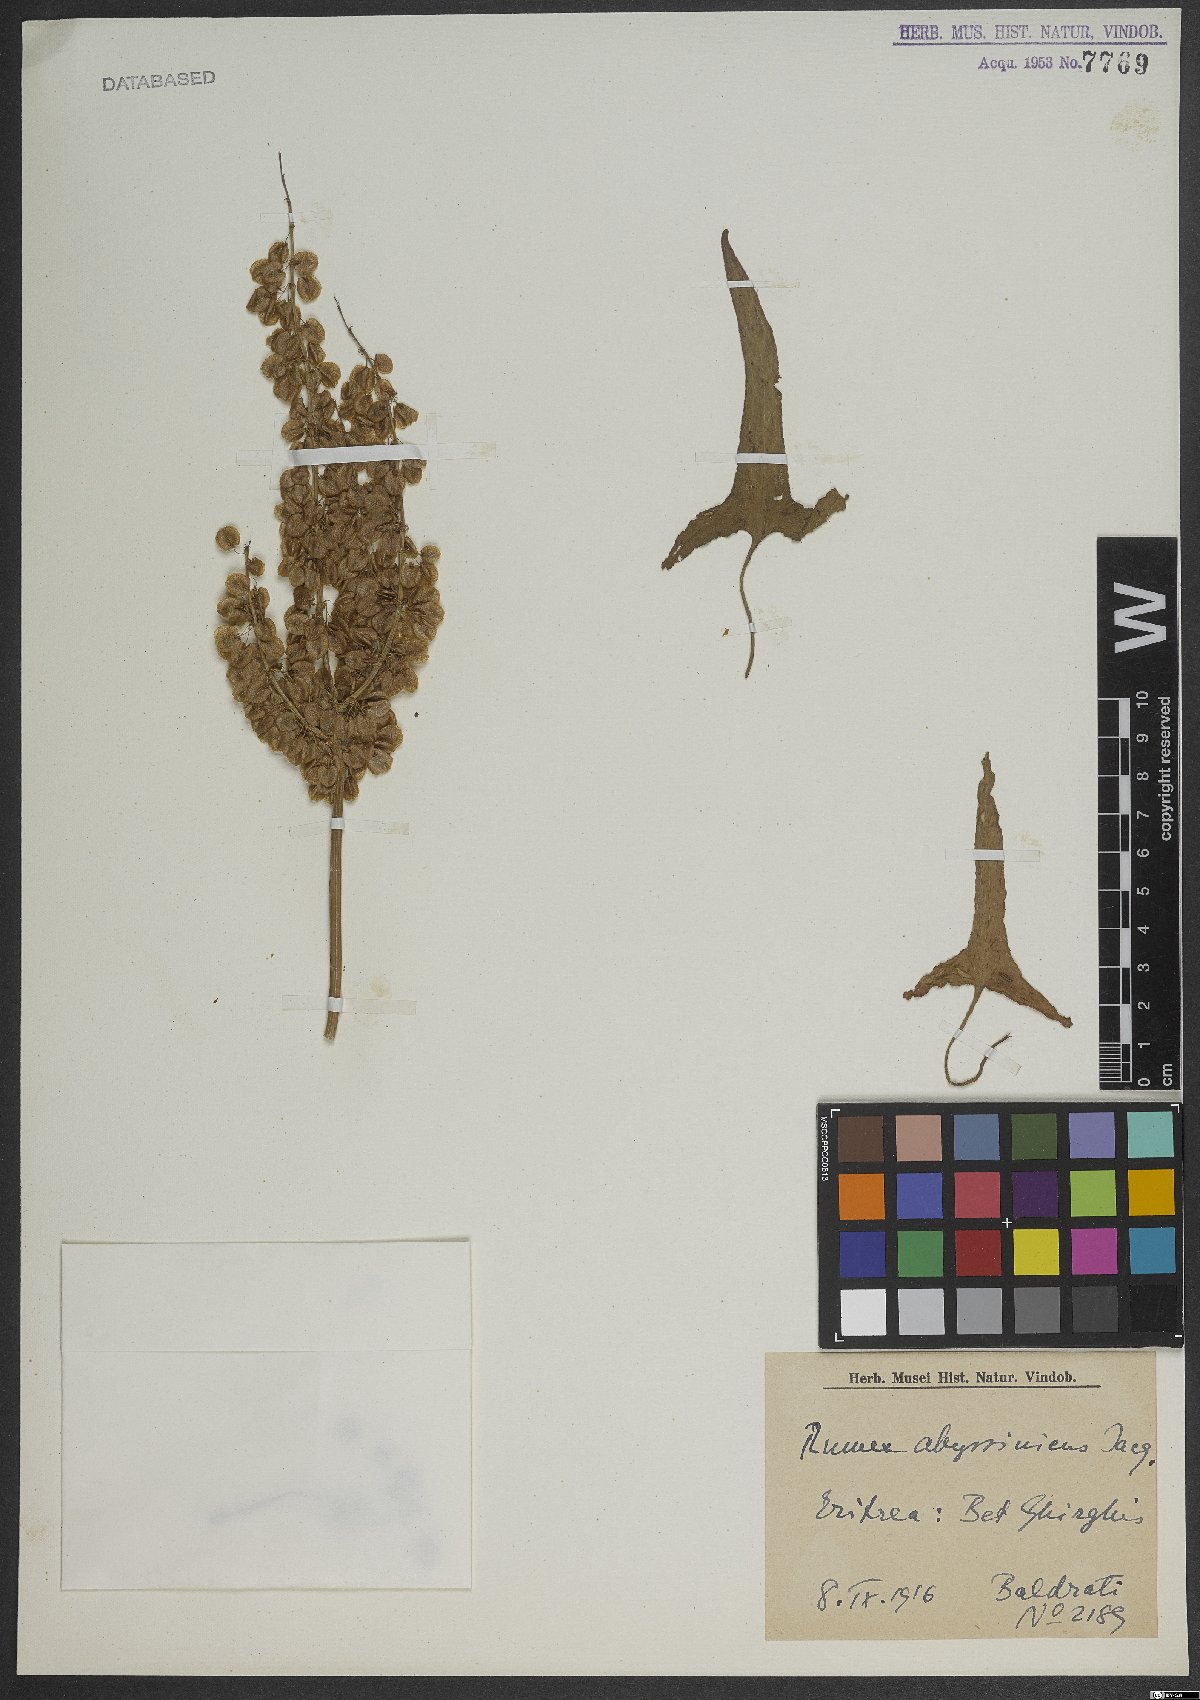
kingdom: Plantae
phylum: Tracheophyta
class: Magnoliopsida
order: Caryophyllales
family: Polygonaceae
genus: Rumex
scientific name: Rumex abyssinicus
